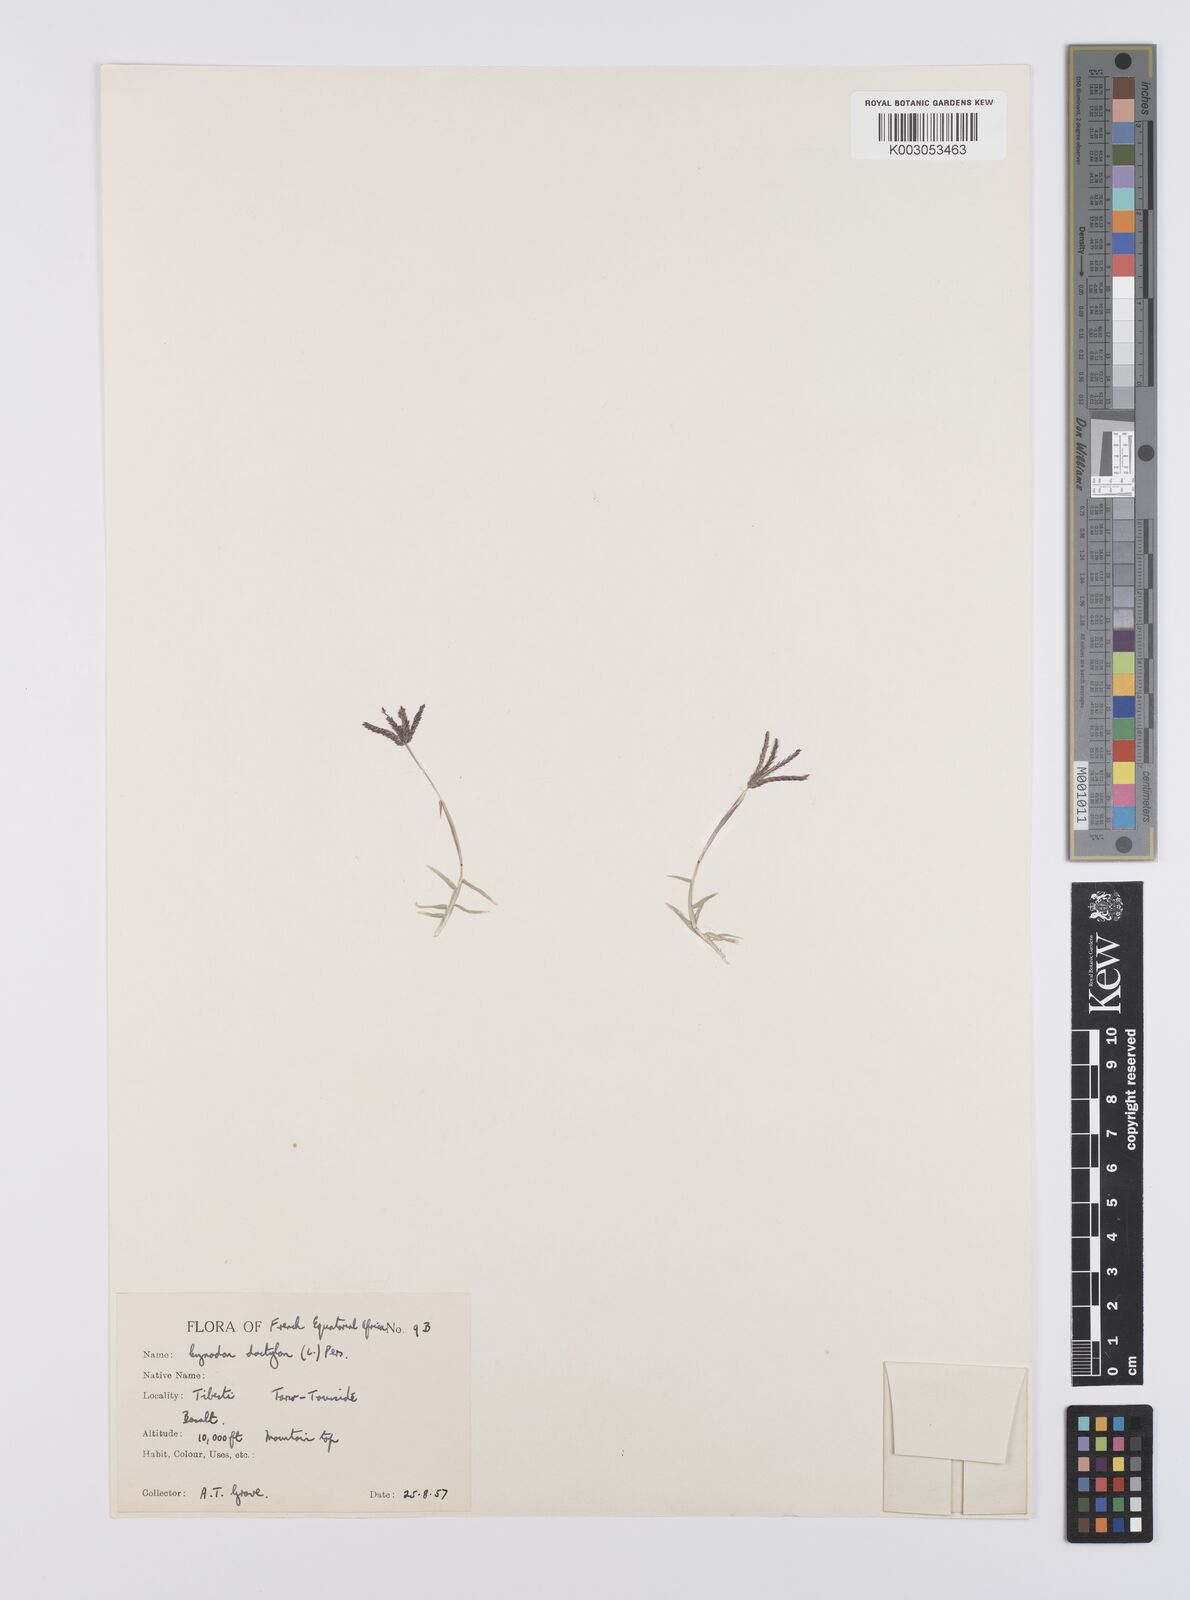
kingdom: Plantae
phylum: Tracheophyta
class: Liliopsida
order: Poales
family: Poaceae
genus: Cynodon
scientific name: Cynodon dactylon
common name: Bermuda grass
